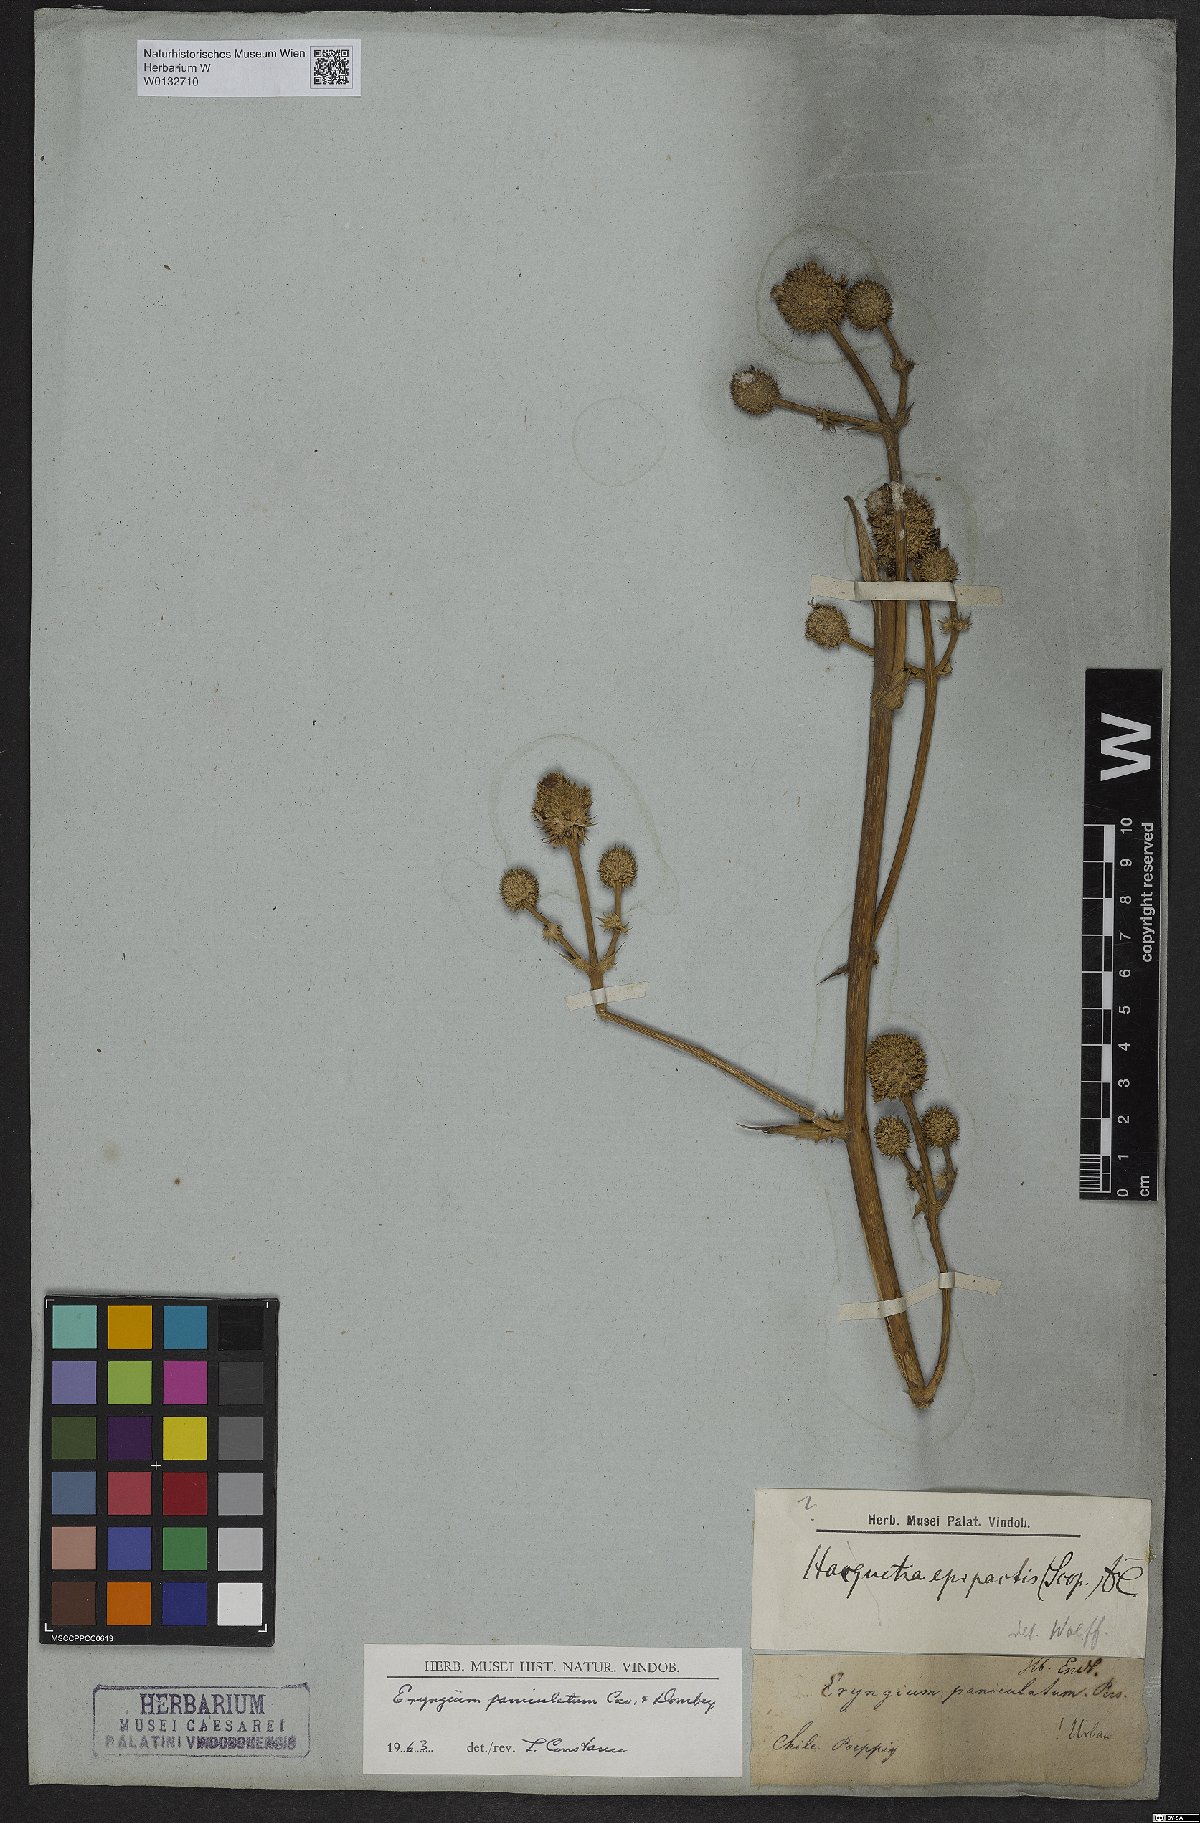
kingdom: Plantae
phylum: Tracheophyta
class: Magnoliopsida
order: Apiales
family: Apiaceae
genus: Eryngium
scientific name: Eryngium humboldtii
